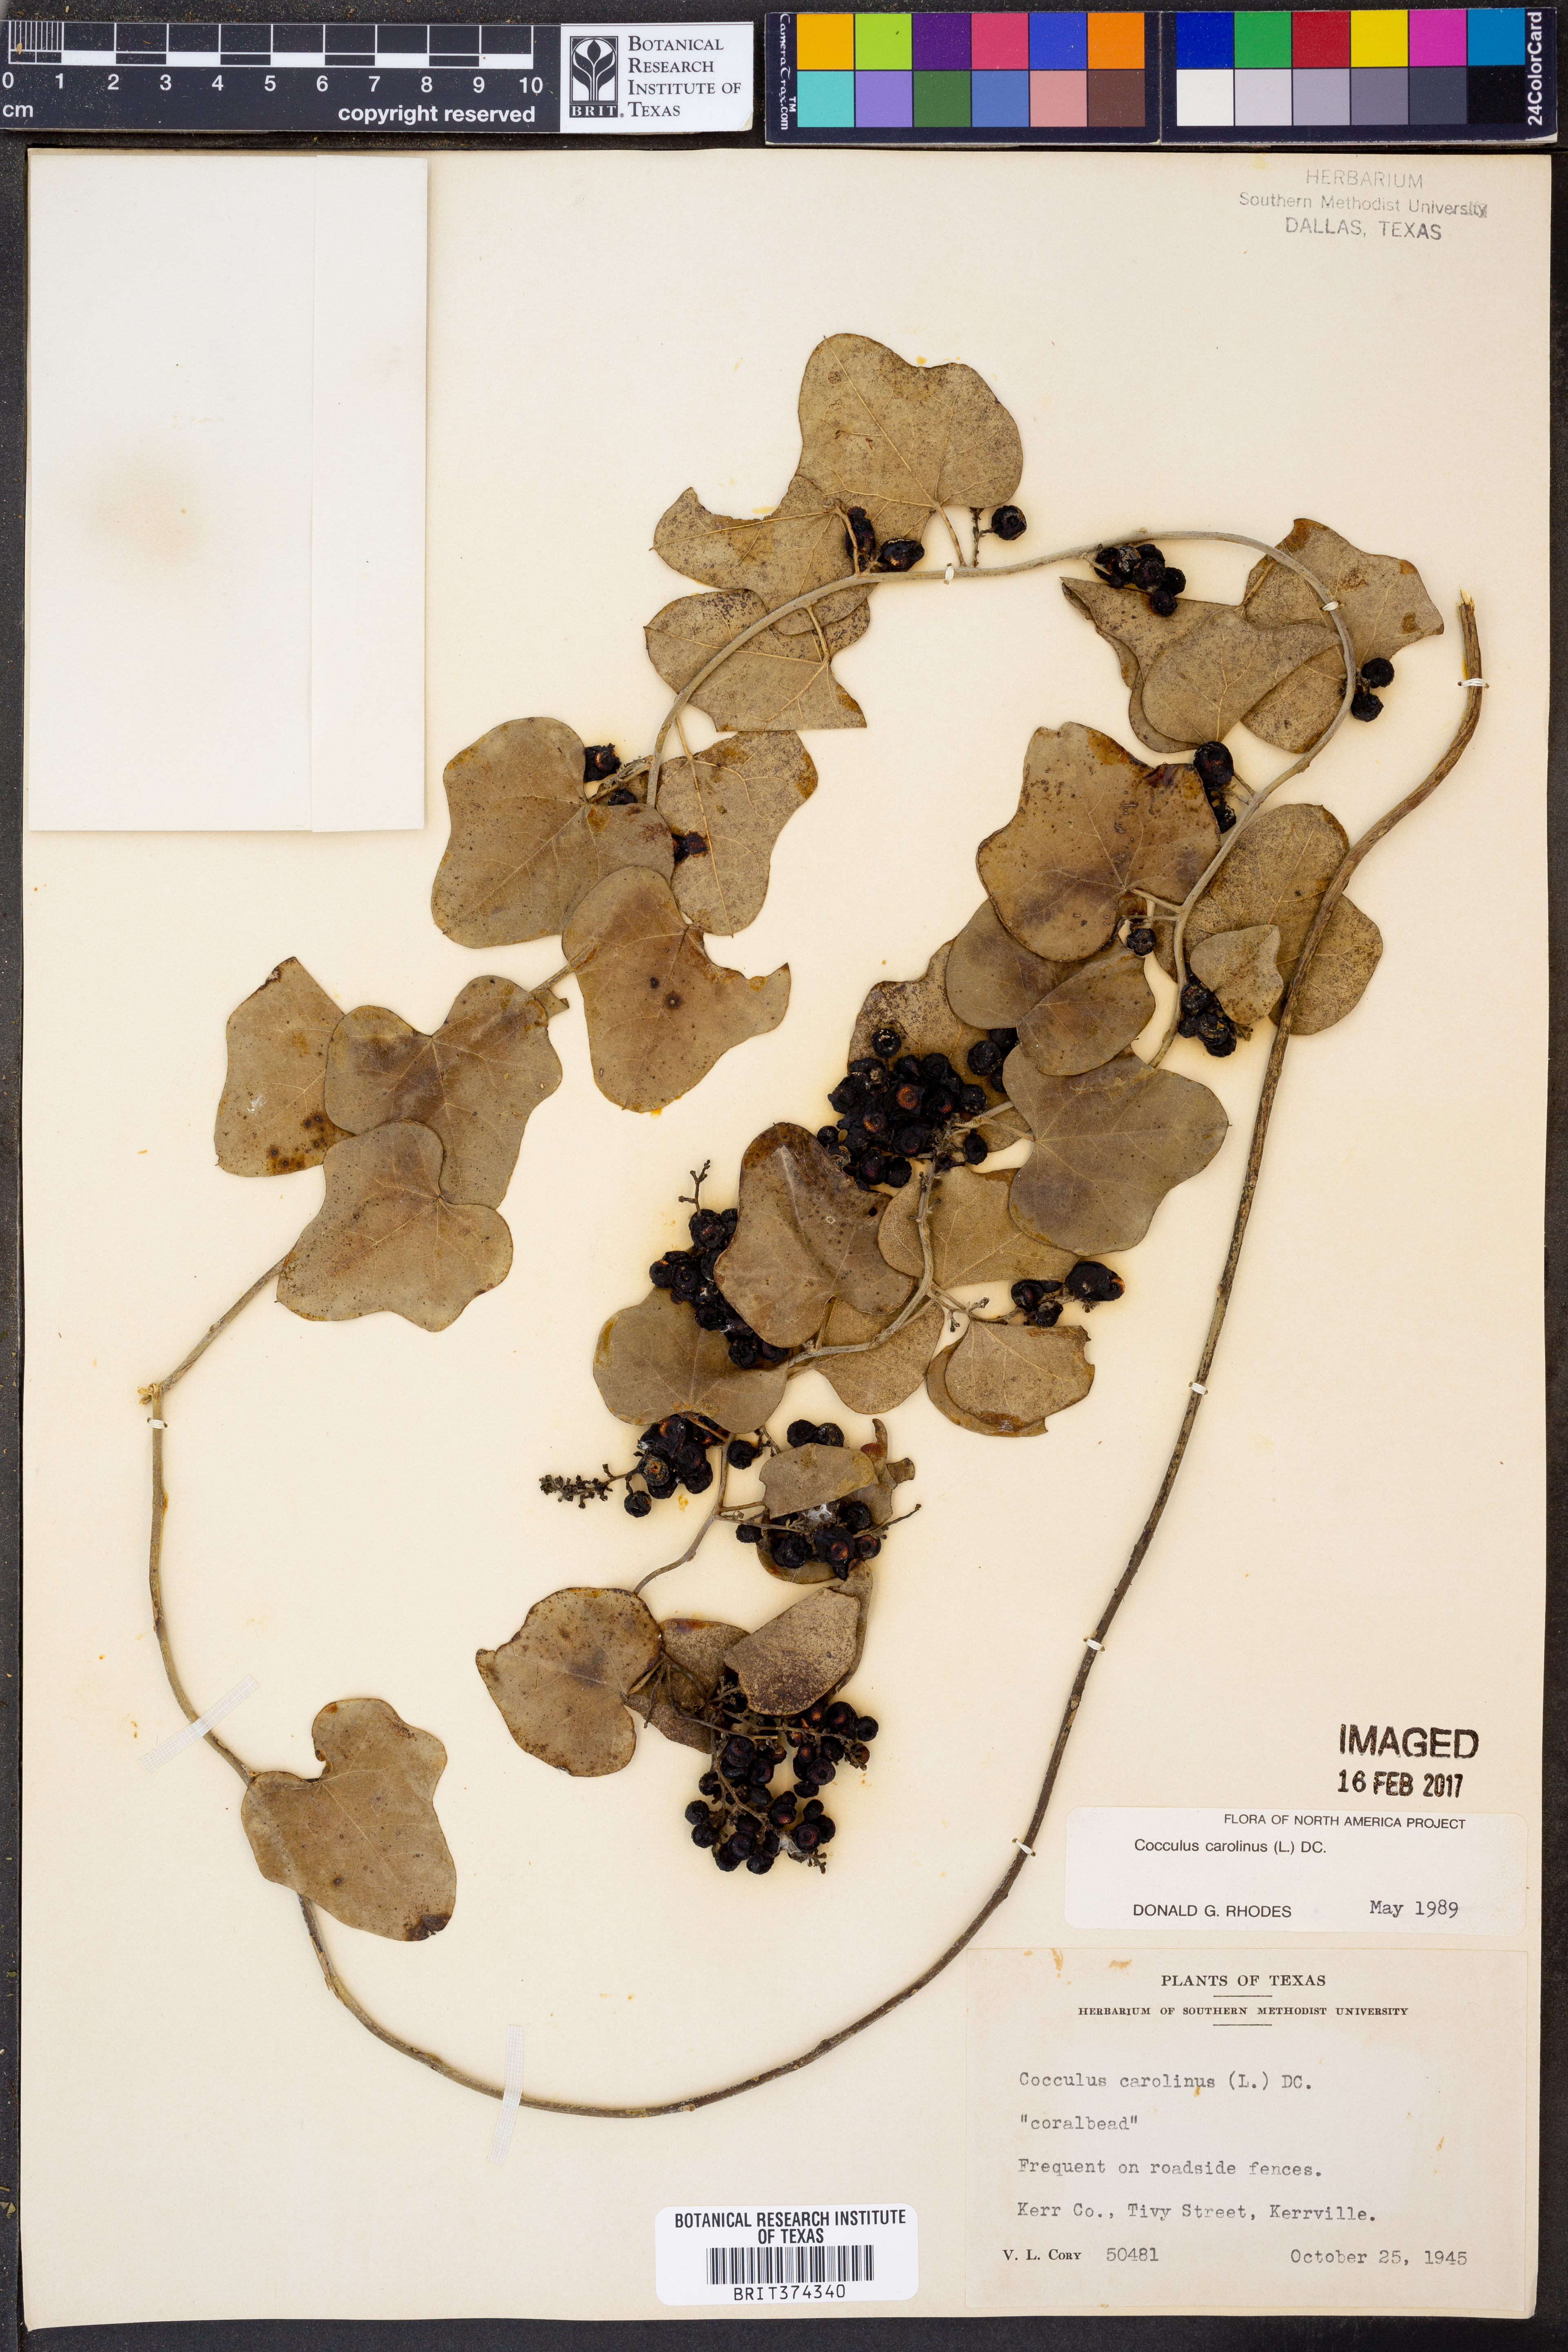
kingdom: Plantae
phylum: Tracheophyta
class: Magnoliopsida
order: Ranunculales
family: Menispermaceae
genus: Cocculus
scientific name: Cocculus carolinus
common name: Carolina moonseed
